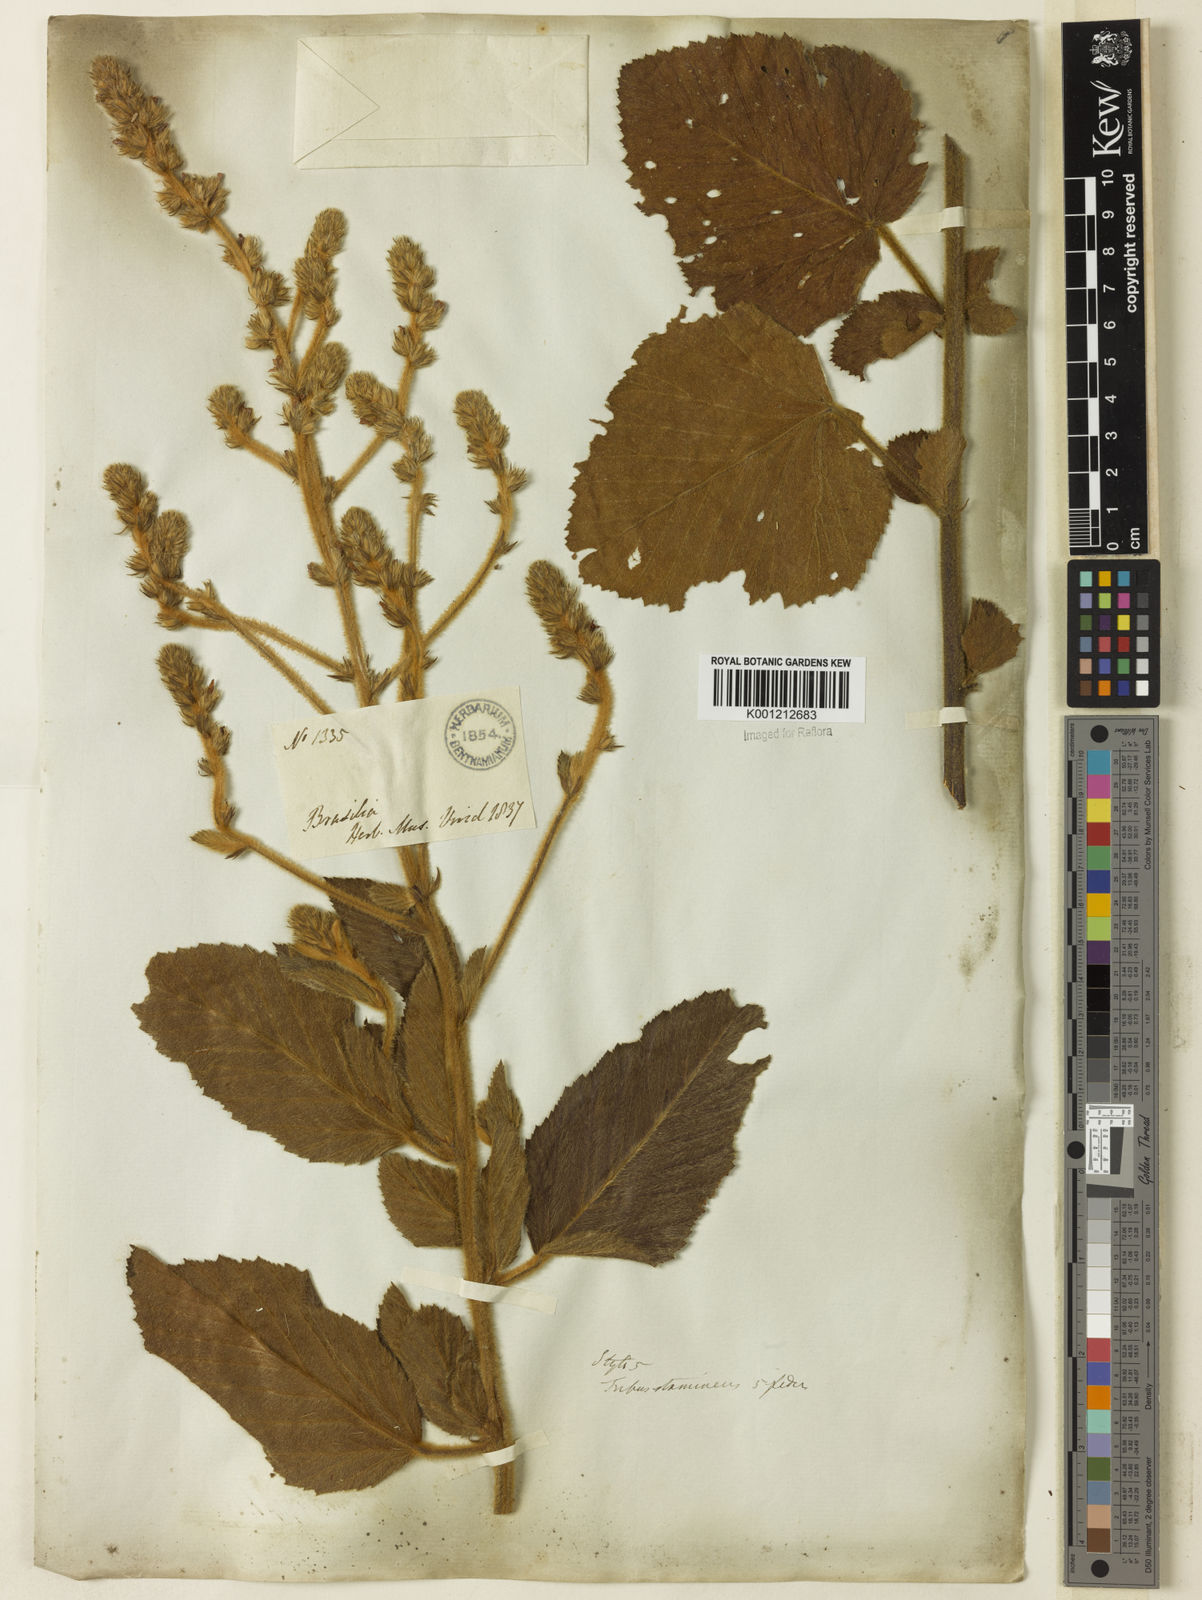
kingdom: Plantae
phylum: Tracheophyta
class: Magnoliopsida
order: Malvales
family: Malvaceae
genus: Melochia
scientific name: Melochia spicata
